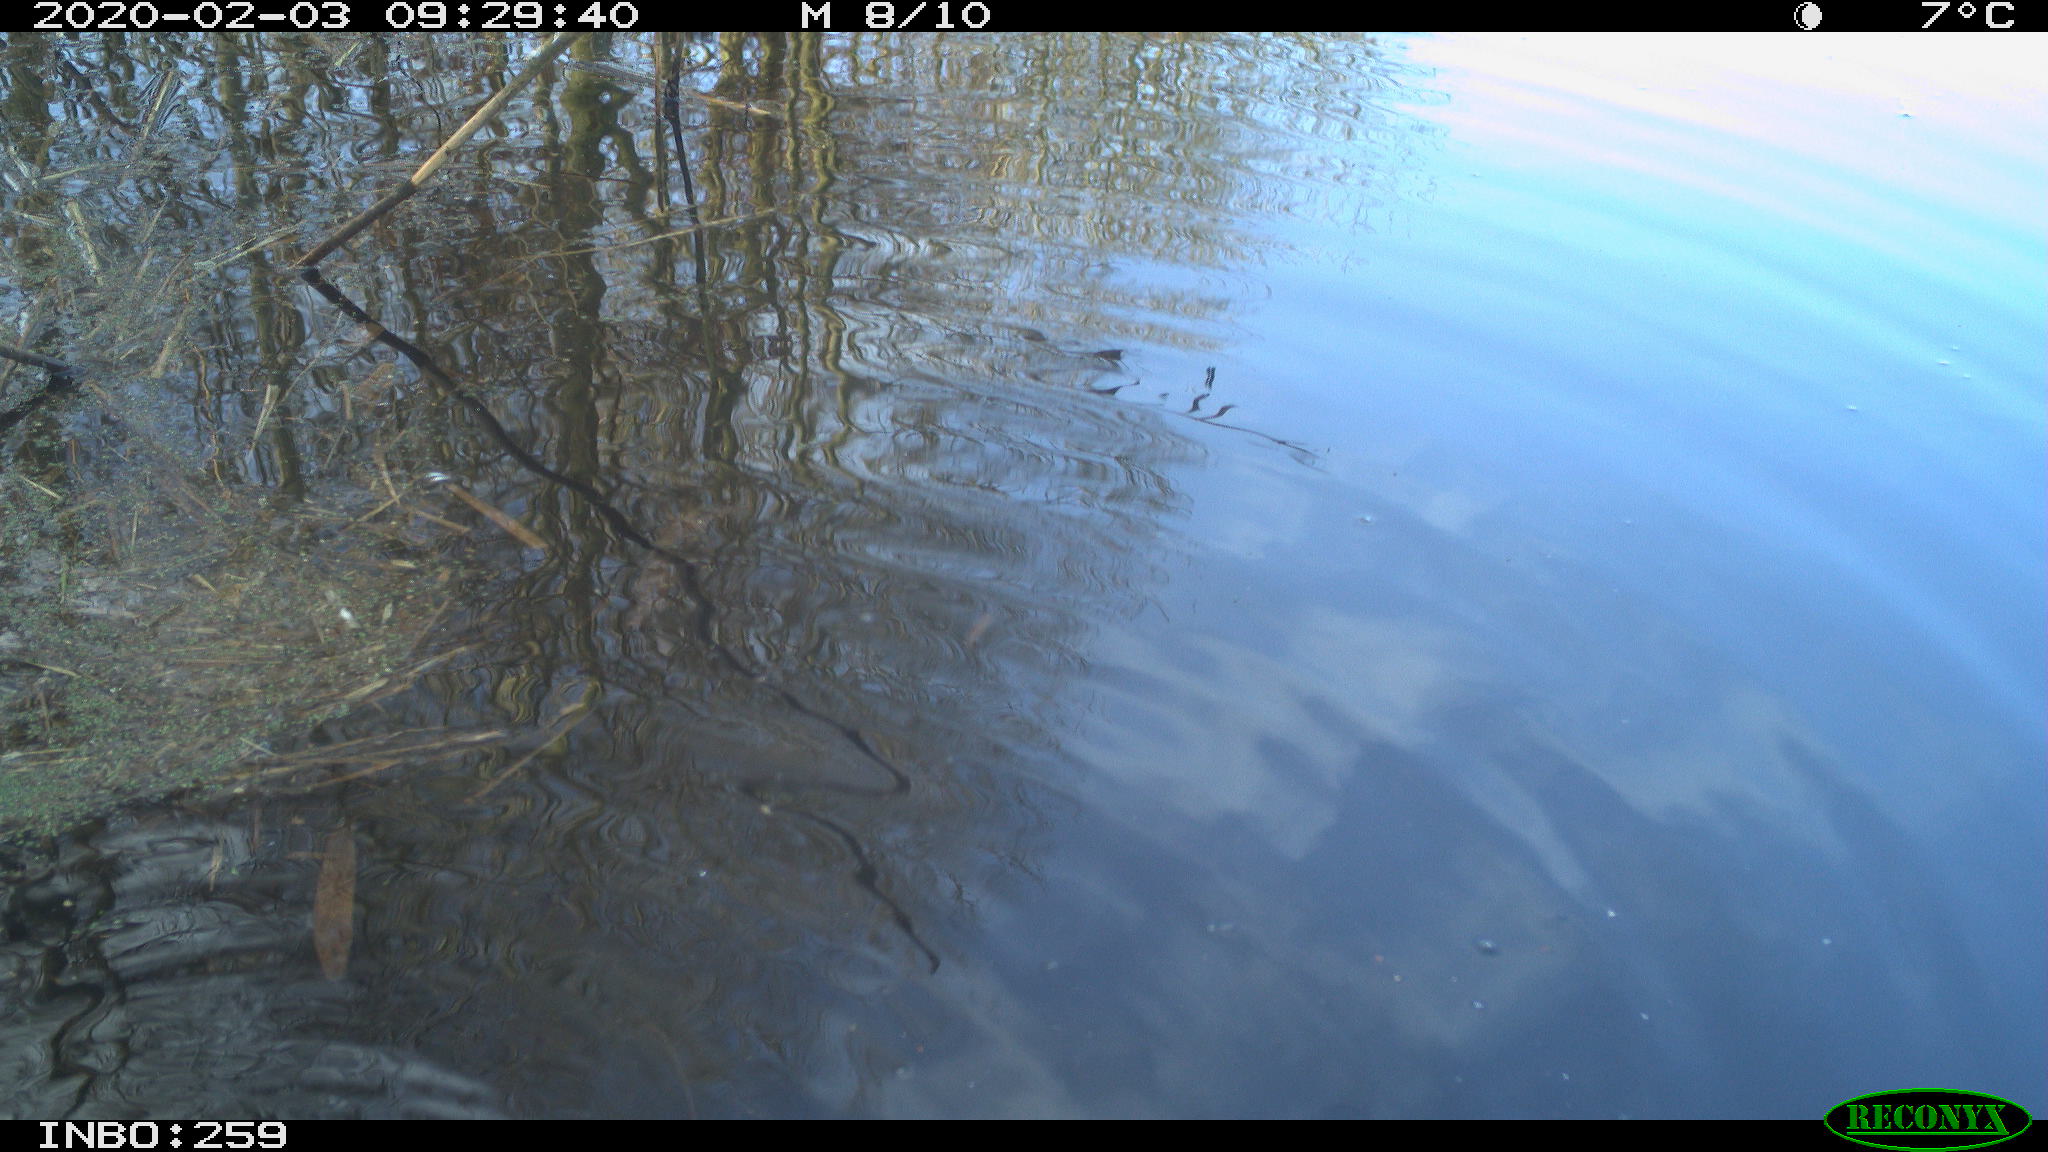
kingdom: Animalia
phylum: Chordata
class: Aves
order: Gruiformes
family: Rallidae
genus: Gallinula
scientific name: Gallinula chloropus
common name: Common moorhen
